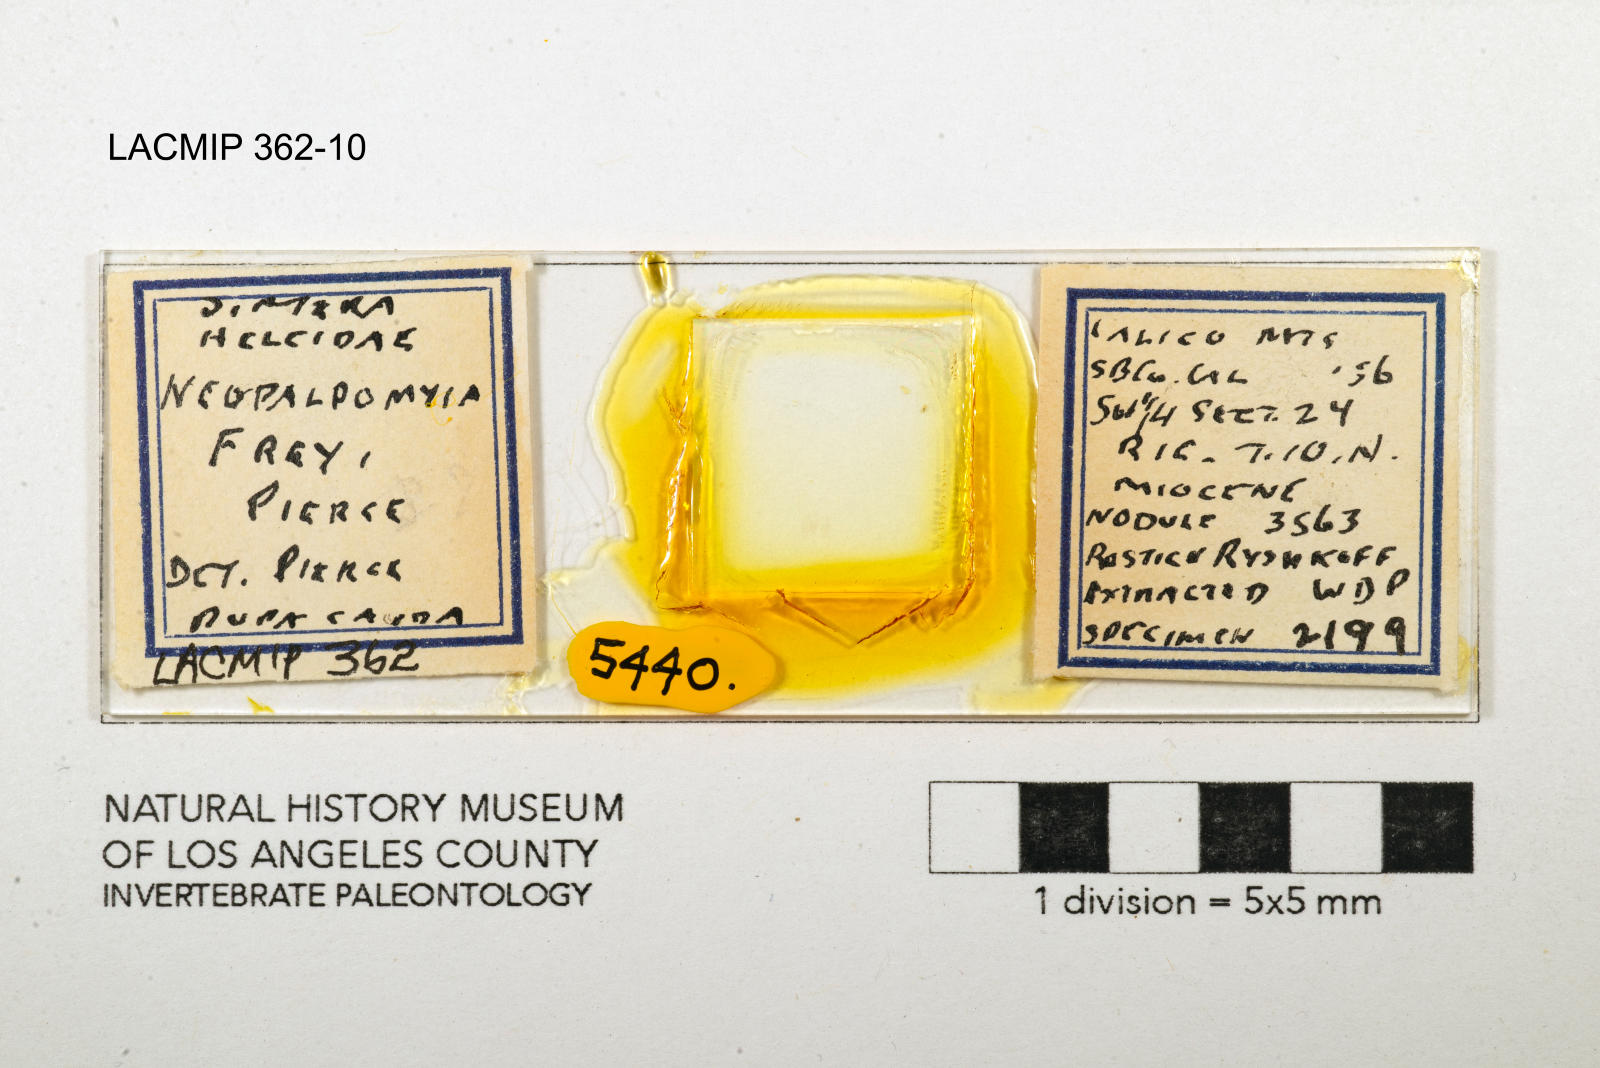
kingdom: Animalia
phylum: Arthropoda
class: Insecta
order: Diptera
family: Ceratopogonidae
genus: Palpomyia
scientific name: Palpomyia freyi
